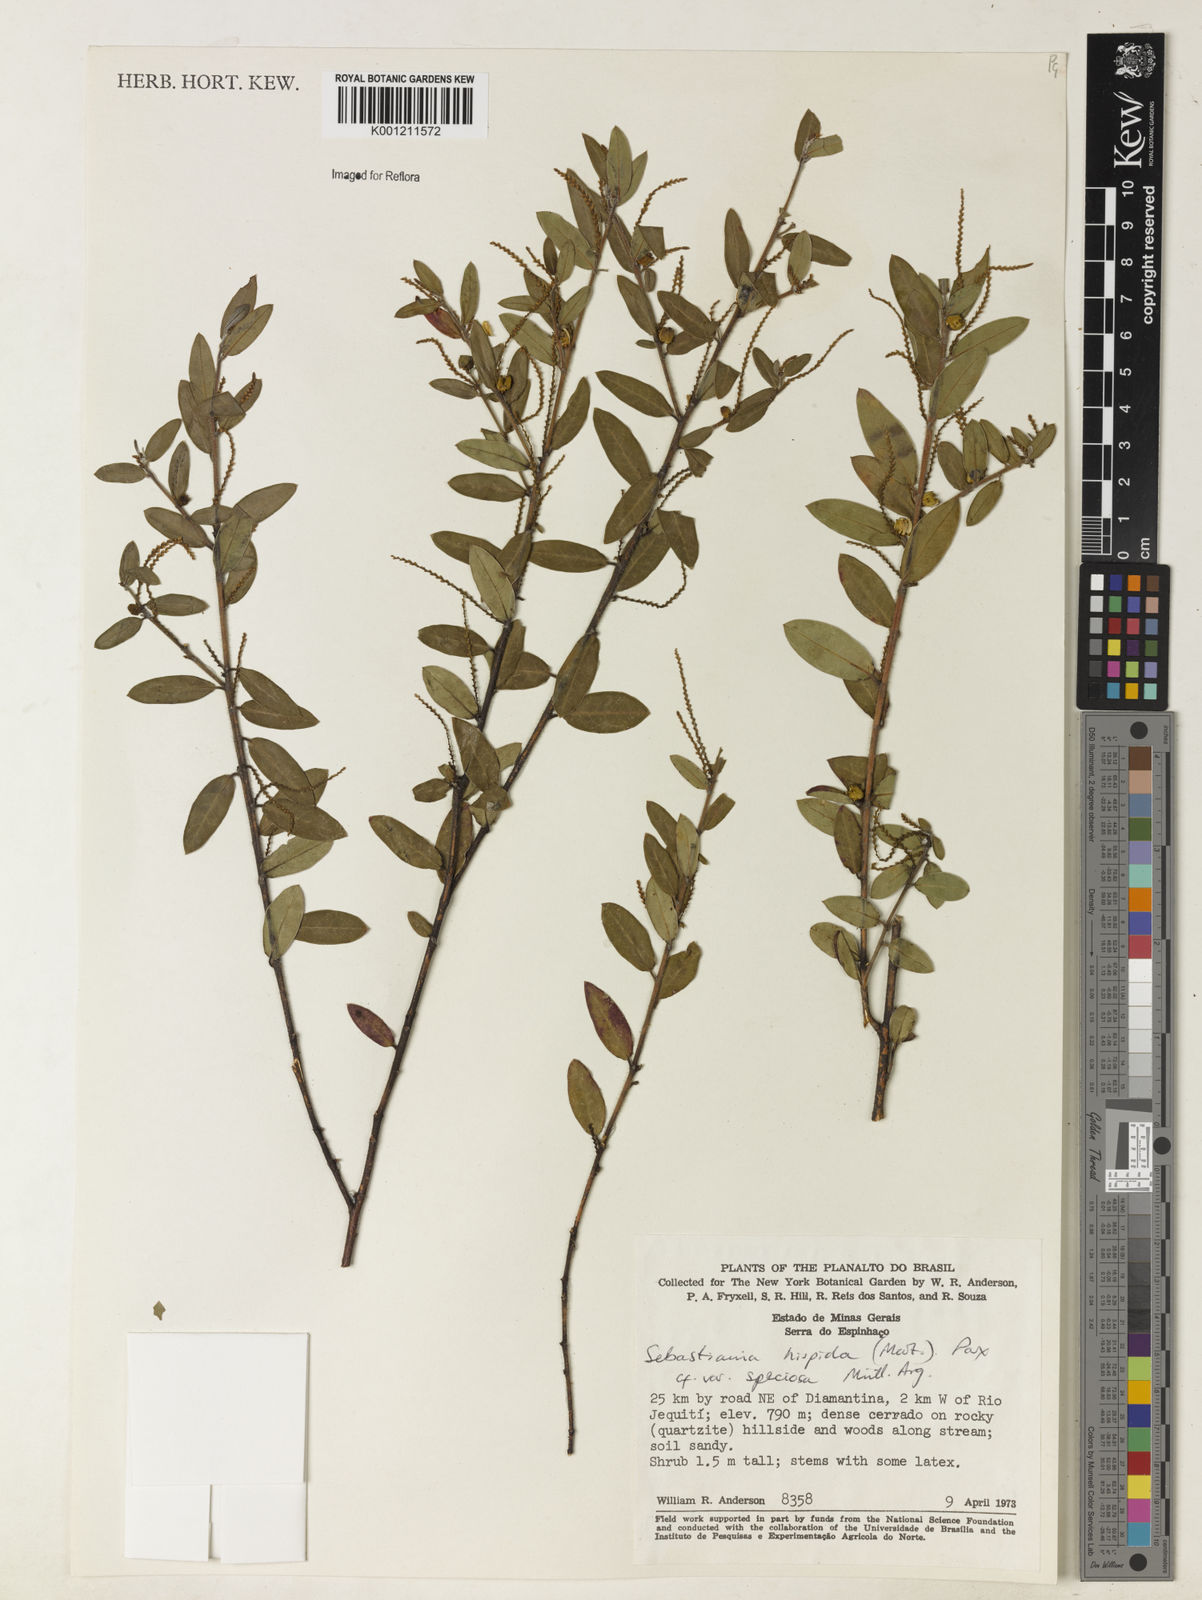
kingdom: Plantae
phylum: Tracheophyta
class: Magnoliopsida
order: Malpighiales
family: Euphorbiaceae
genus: Microstachys
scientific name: Microstachys hispida
